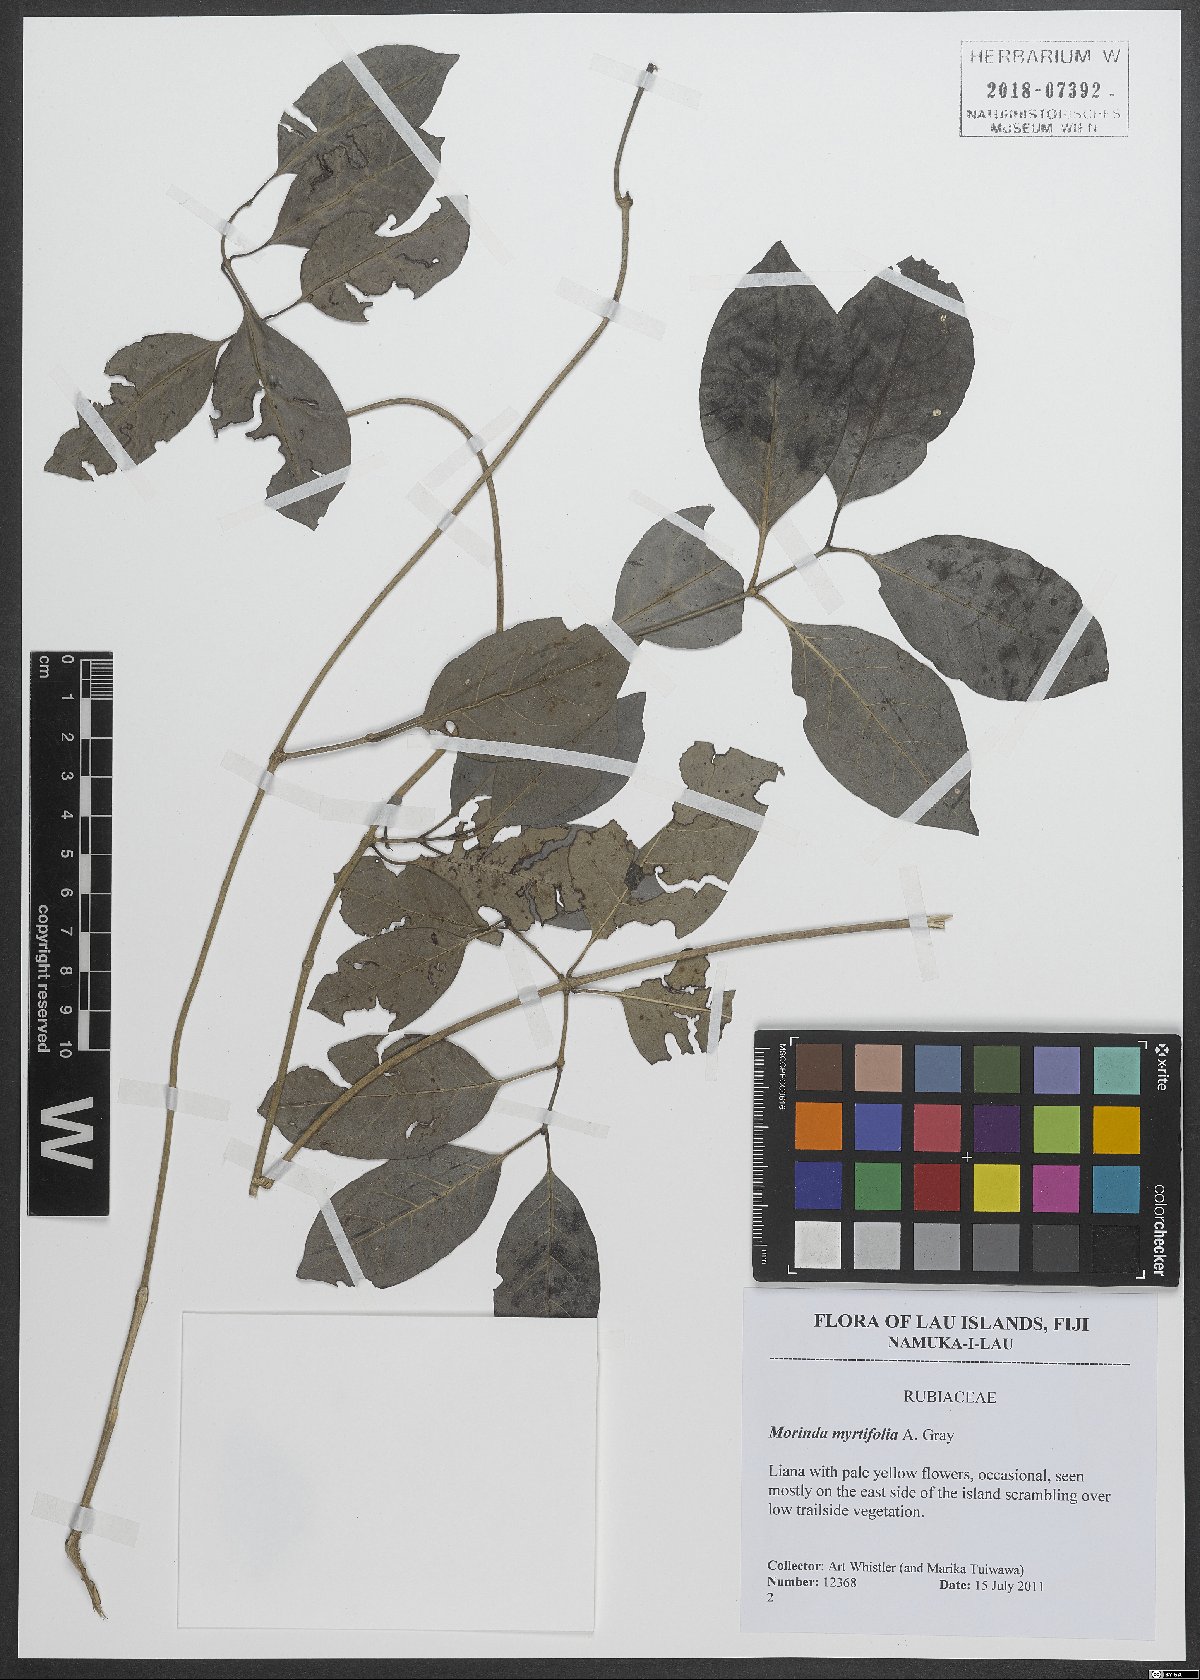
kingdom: Plantae
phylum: Tracheophyta
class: Magnoliopsida
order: Gentianales
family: Rubiaceae
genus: Gynochthodes
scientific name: Gynochthodes myrtifolia
